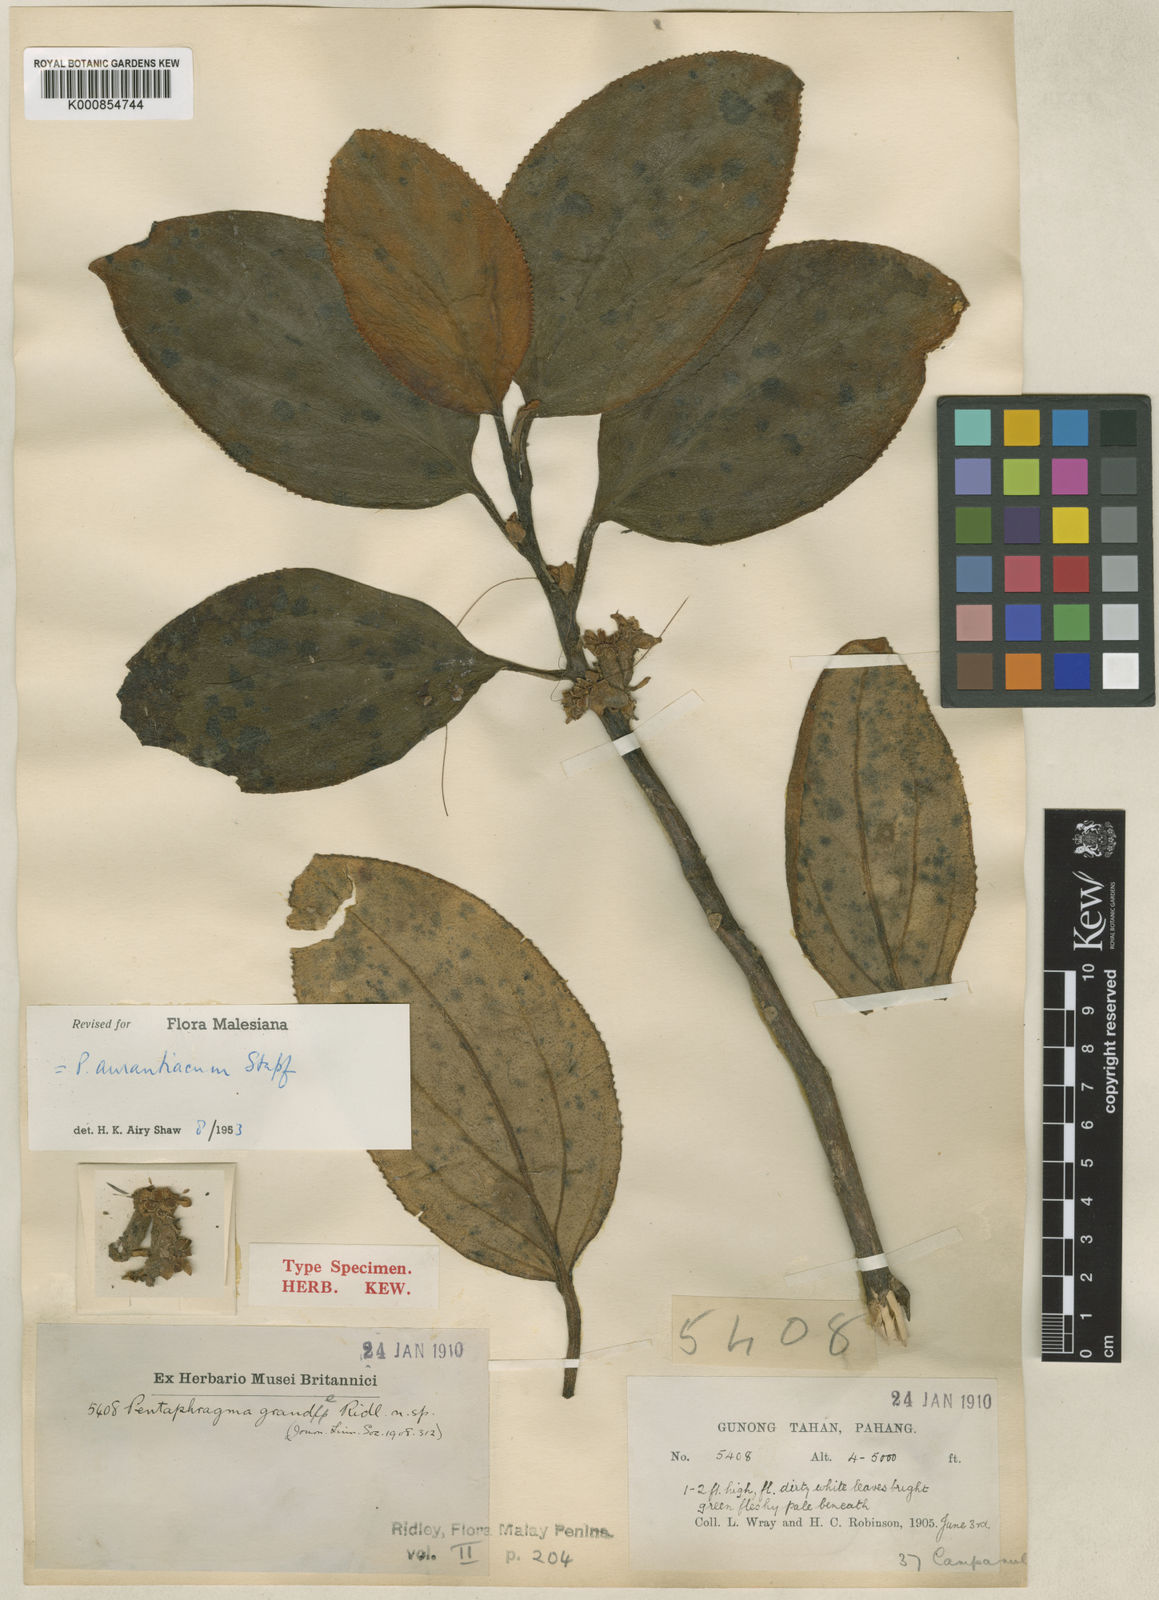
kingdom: Plantae
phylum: Tracheophyta
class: Magnoliopsida
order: Asterales
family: Pentaphragmataceae
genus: Pentaphragma
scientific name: Pentaphragma
